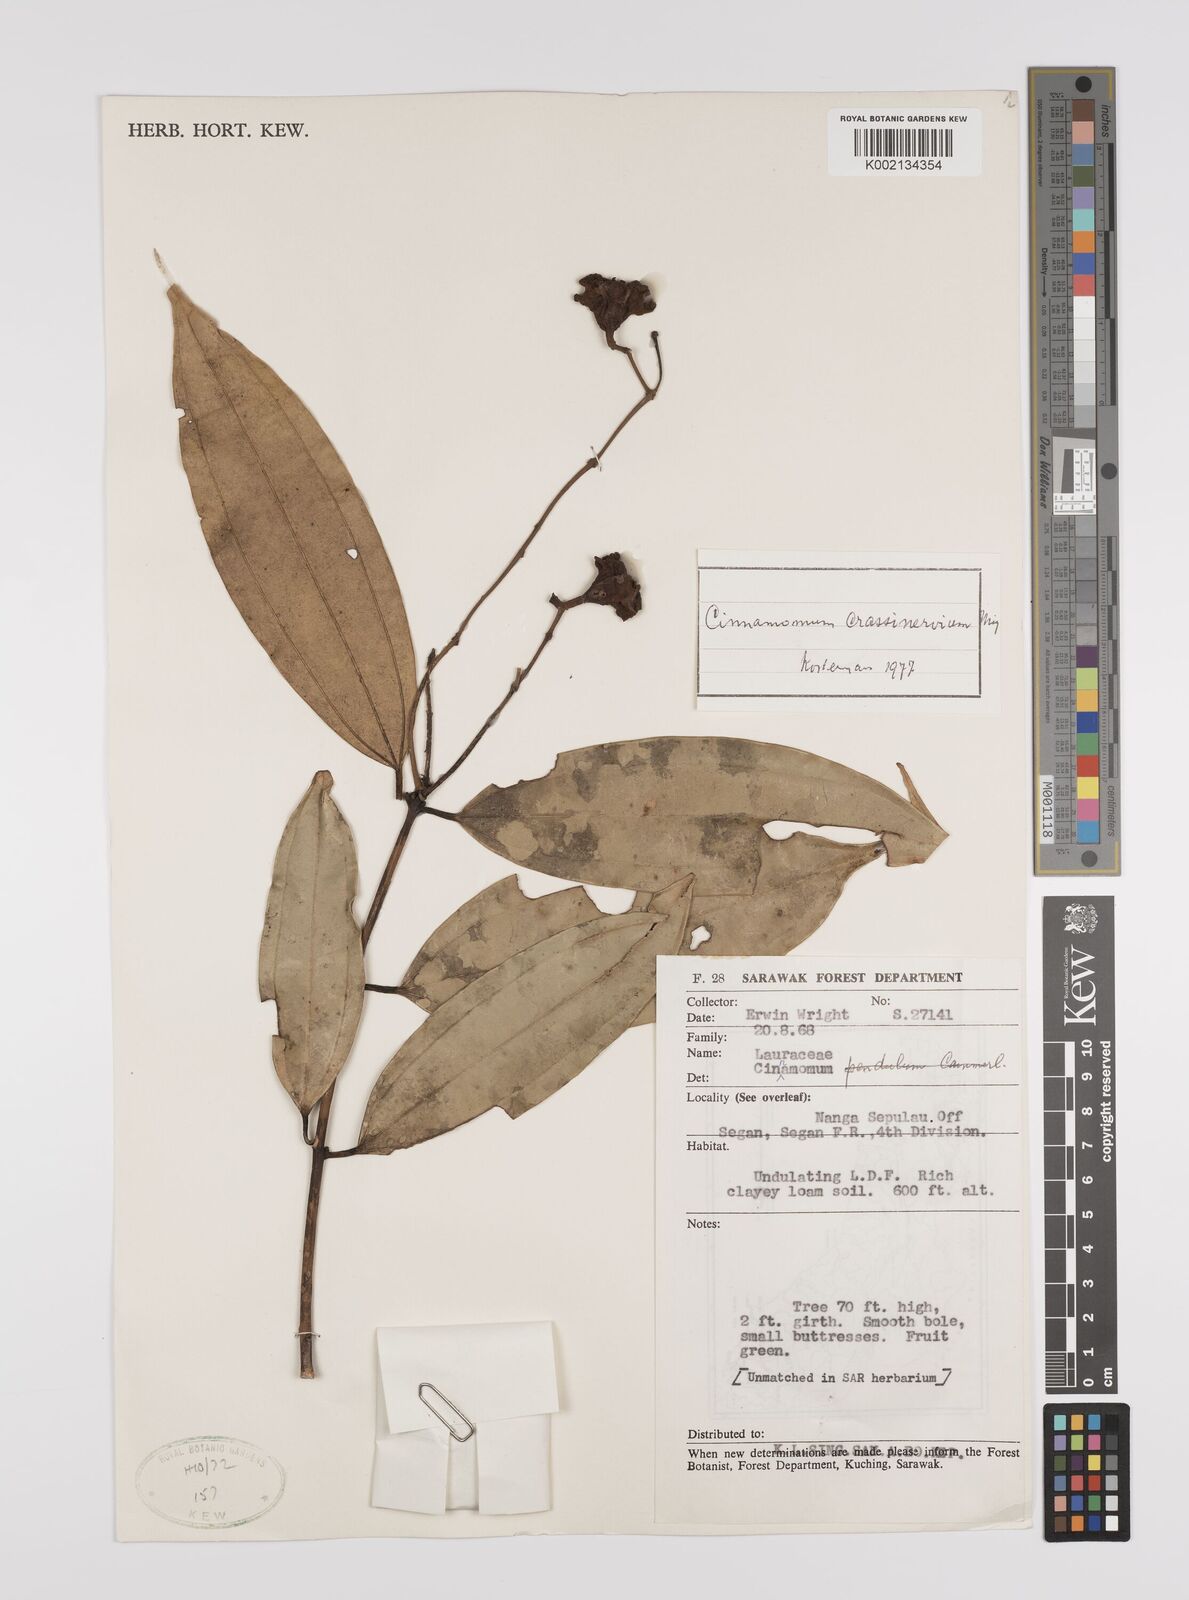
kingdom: Plantae
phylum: Tracheophyta
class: Magnoliopsida
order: Laurales
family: Lauraceae
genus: Cinnamomum
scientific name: Cinnamomum crassinervium
